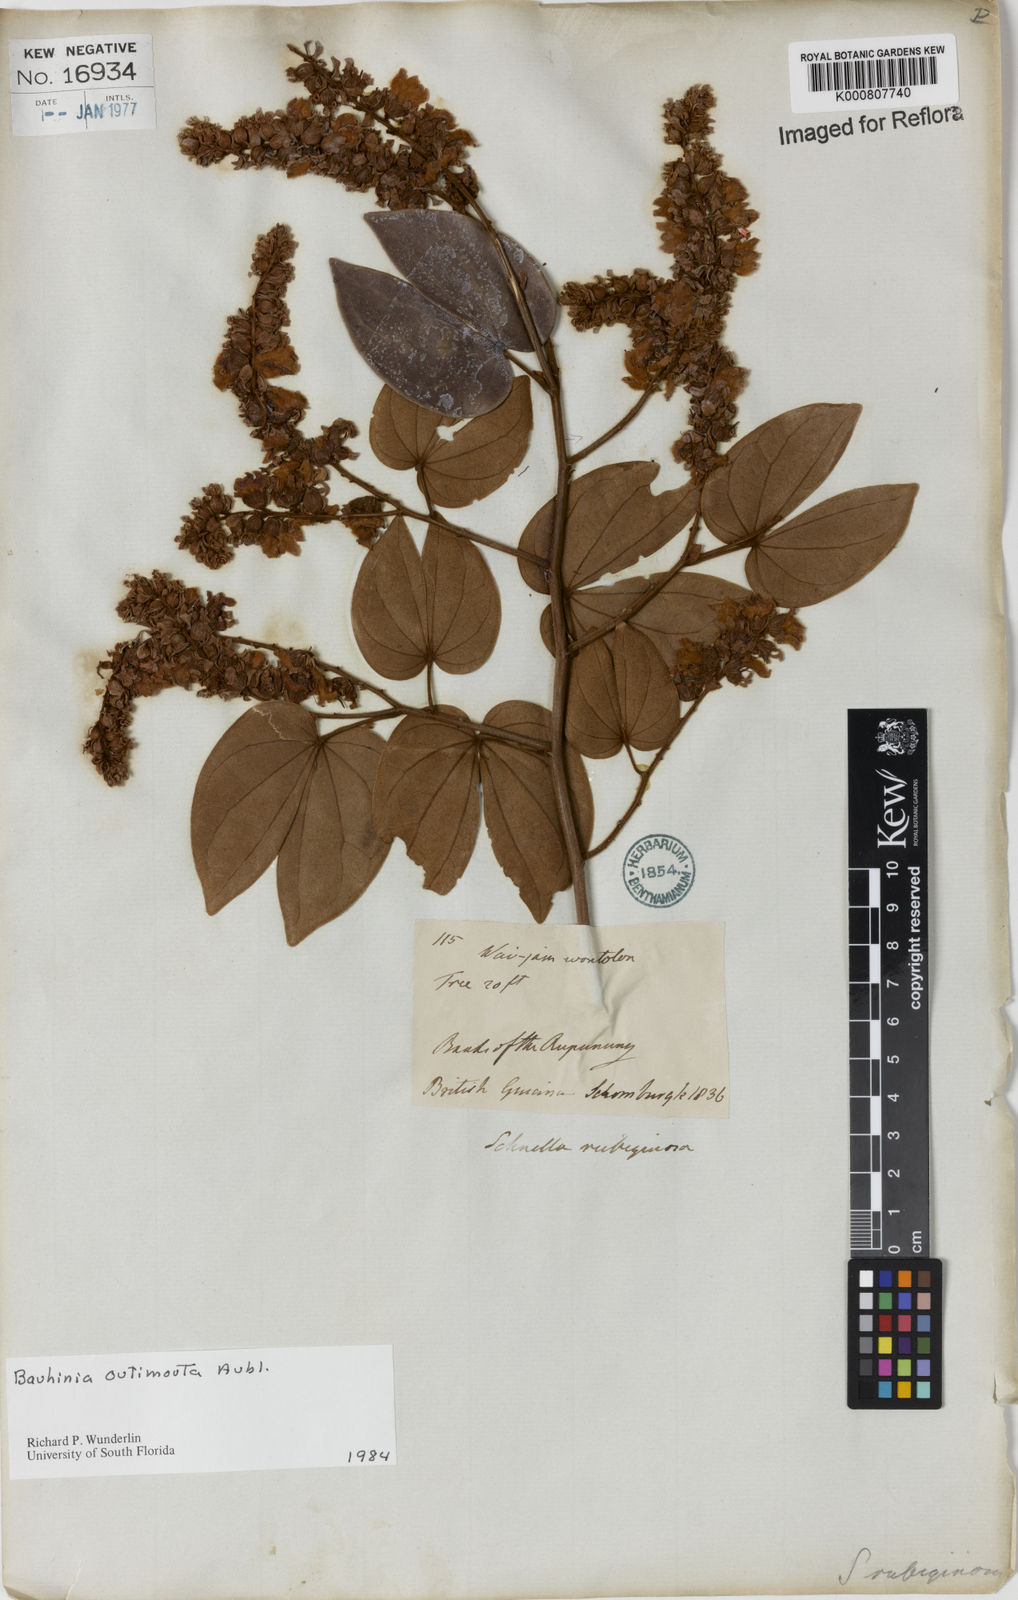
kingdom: Plantae
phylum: Tracheophyta
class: Magnoliopsida
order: Fabales
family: Fabaceae
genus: Schnella
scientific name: Schnella outimouta
